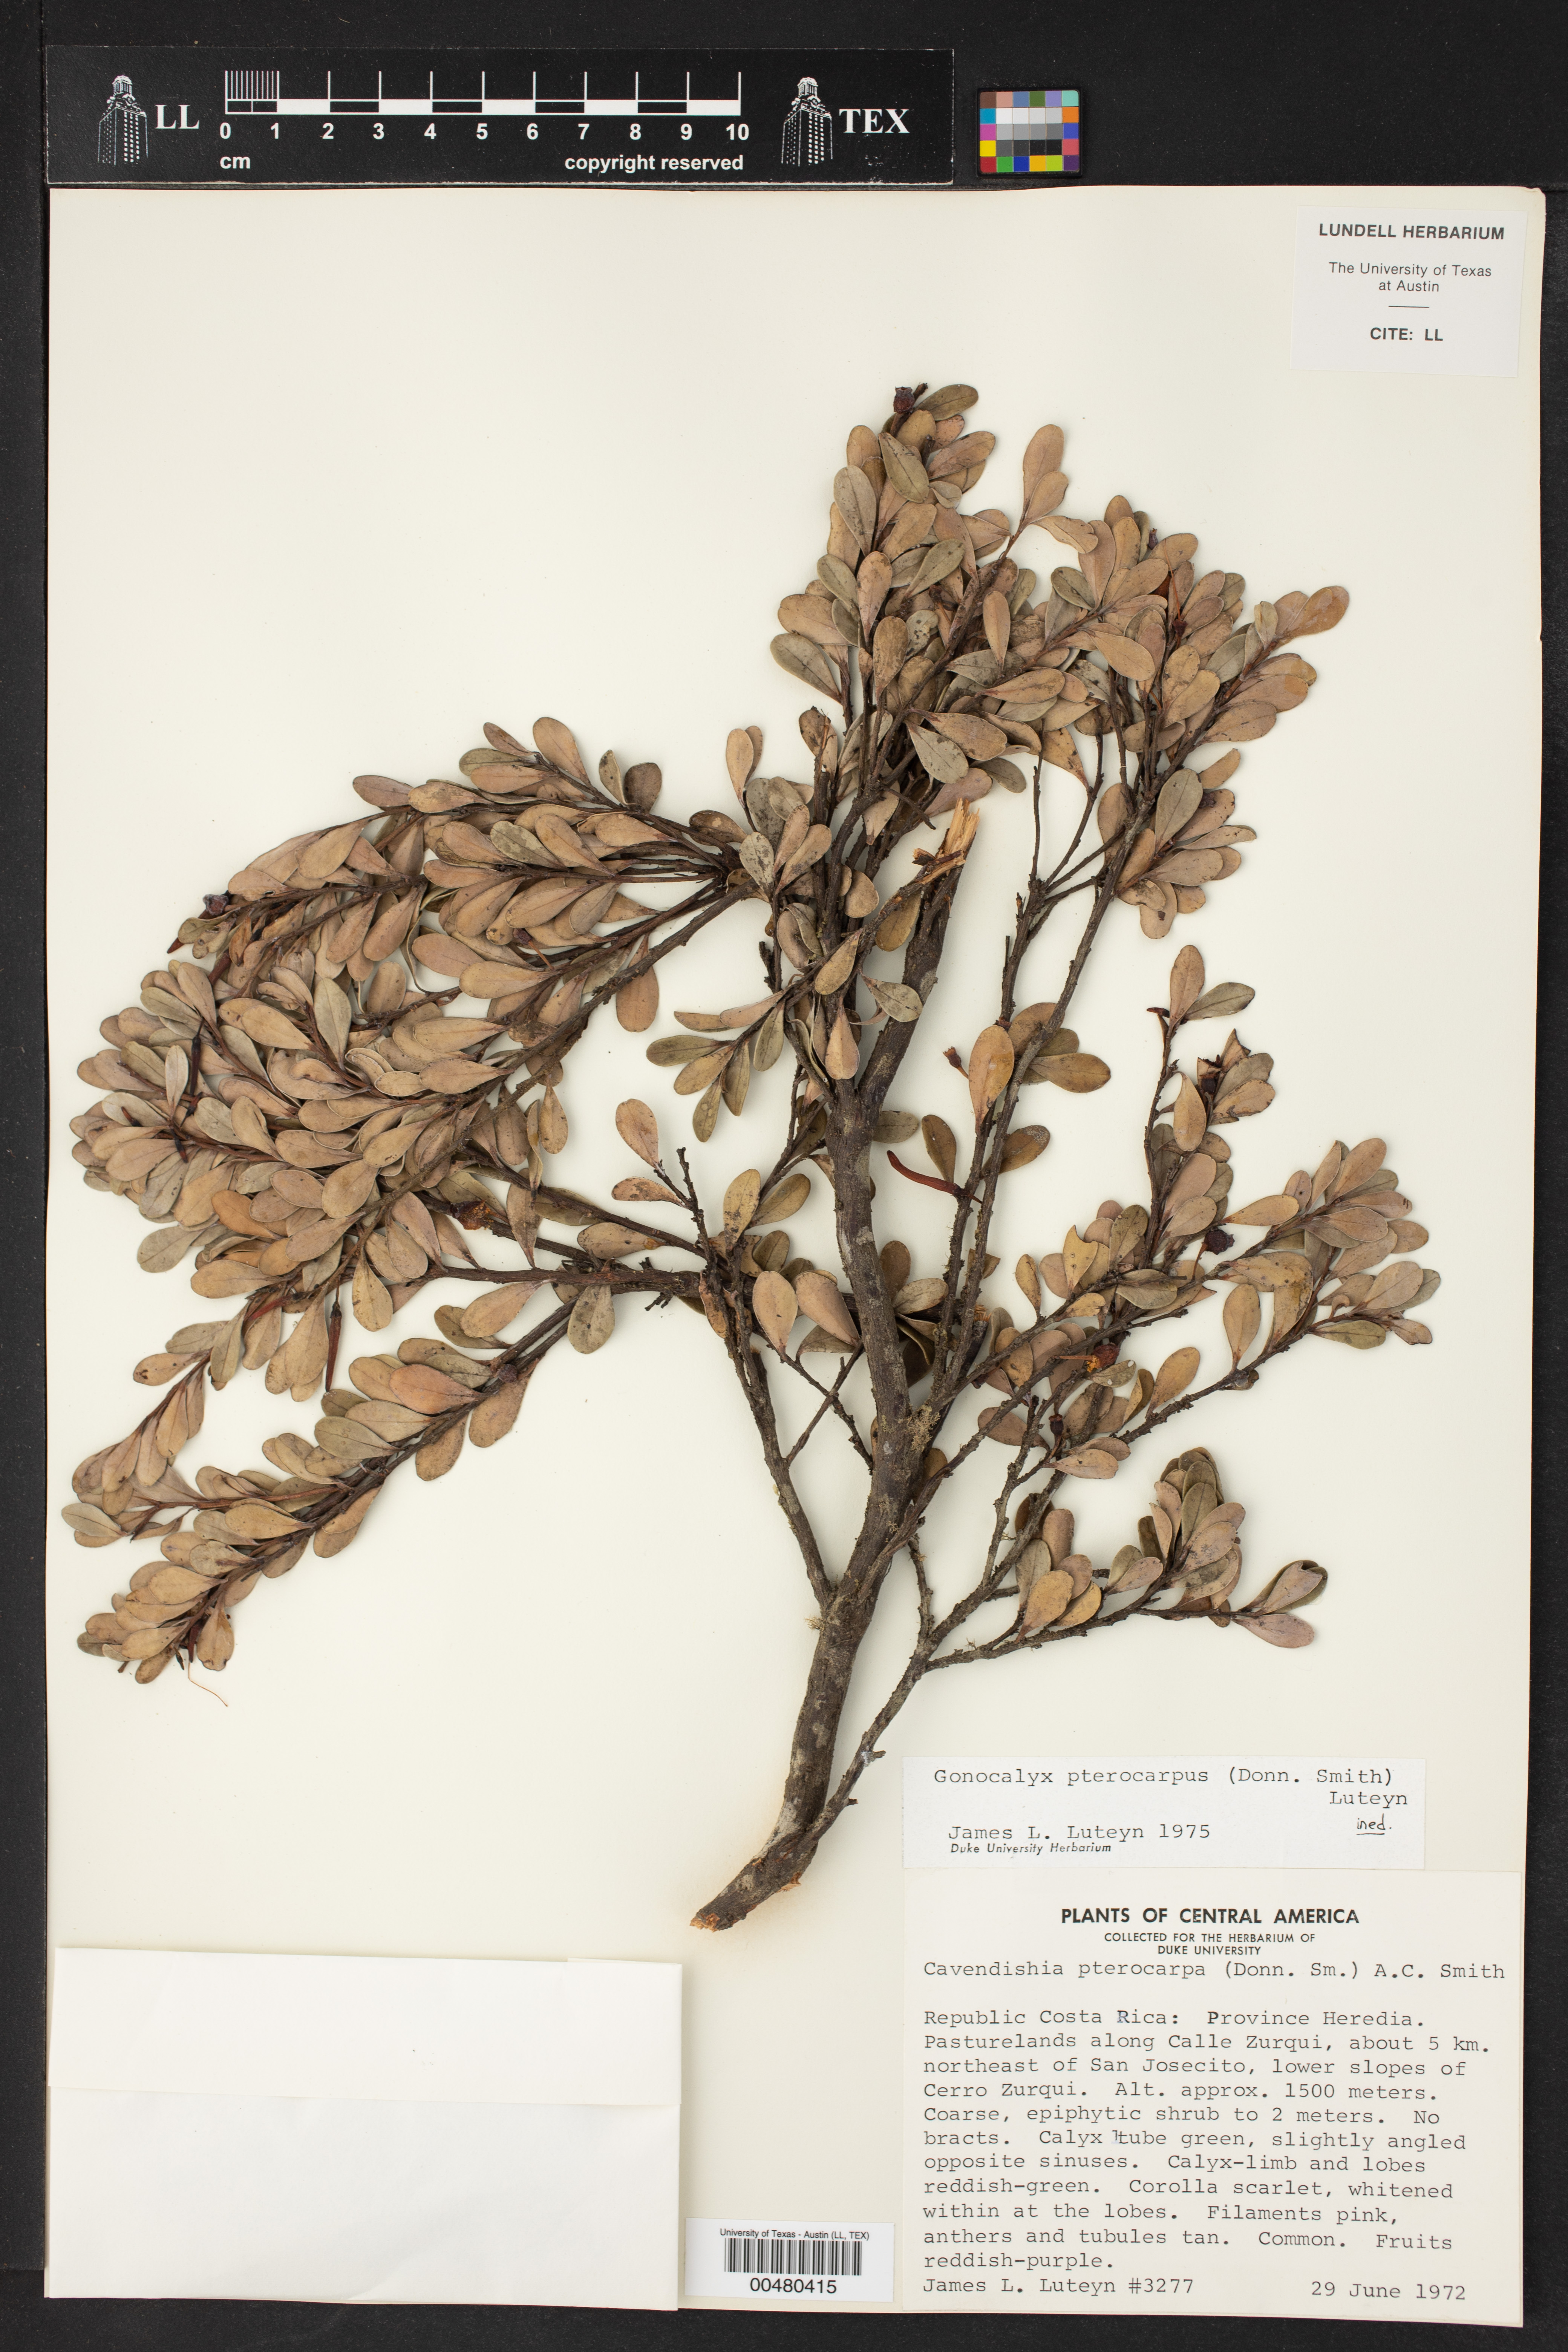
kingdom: Plantae
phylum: Tracheophyta
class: Magnoliopsida
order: Ericales
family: Ericaceae
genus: Gonocalyx
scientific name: Gonocalyx pterocarpus
